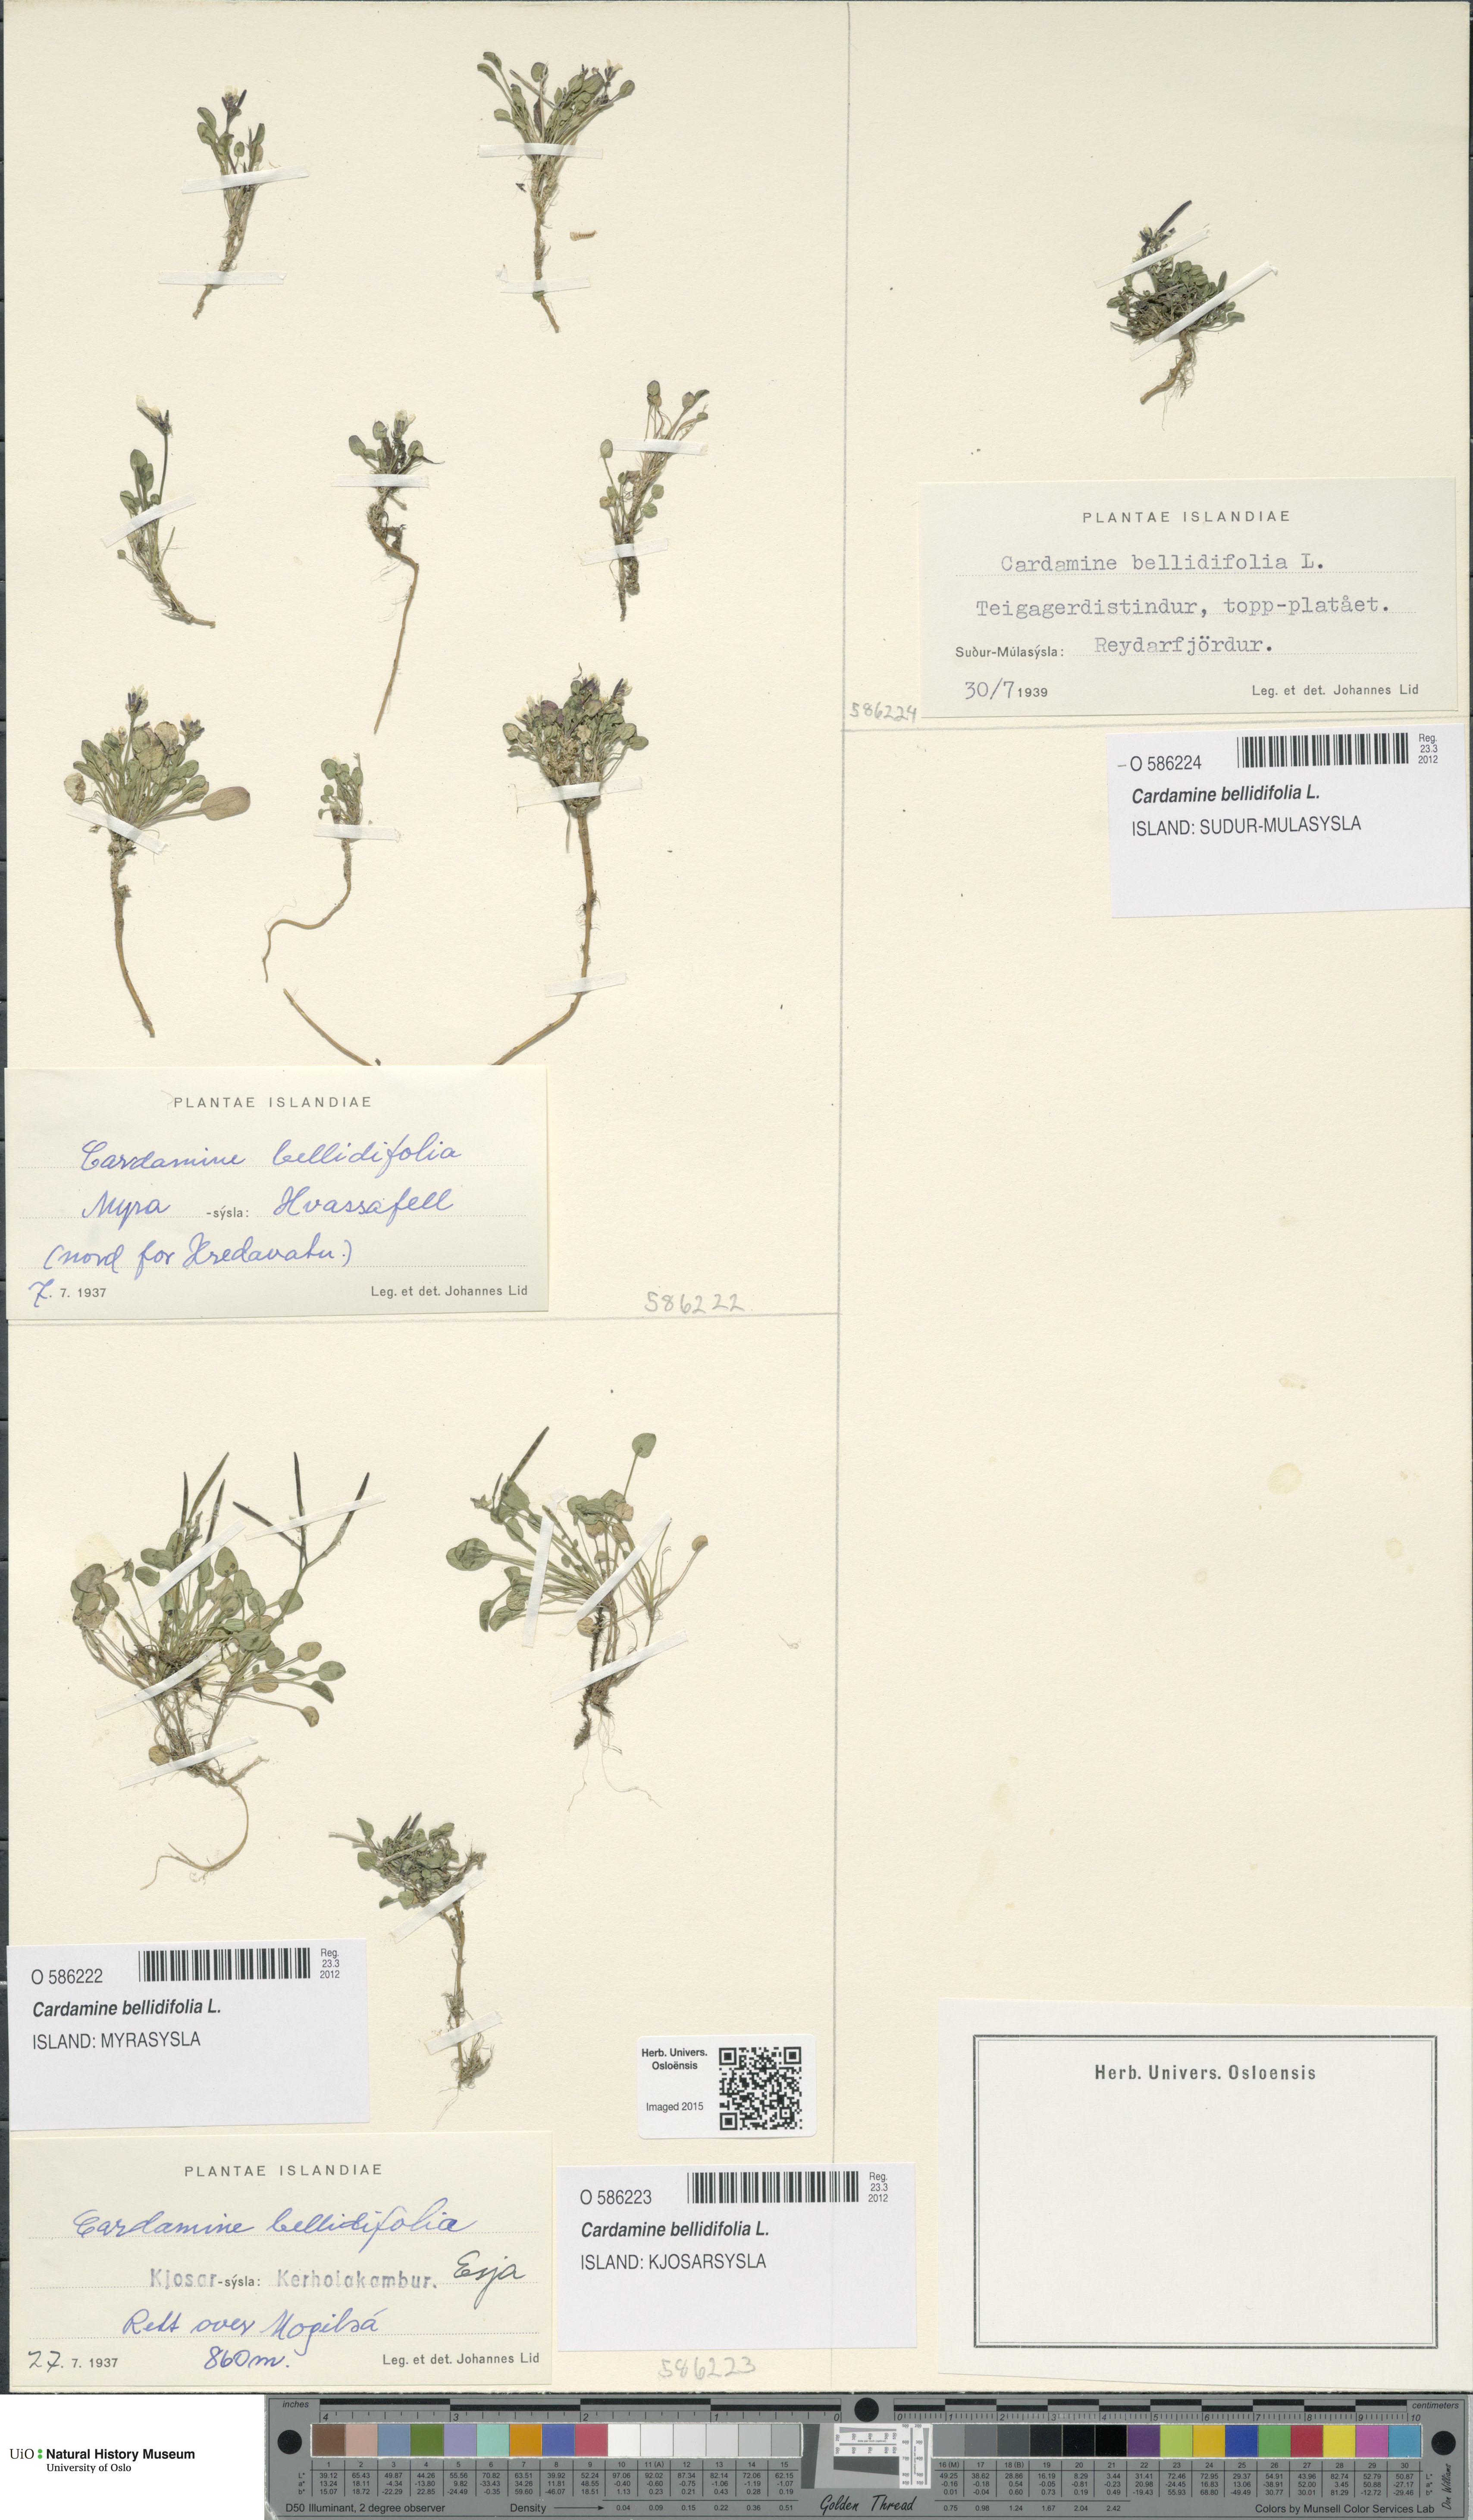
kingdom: Plantae
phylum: Tracheophyta
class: Magnoliopsida
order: Brassicales
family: Brassicaceae
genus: Cardamine
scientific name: Cardamine bellidifolia
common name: Alpine bittercress
